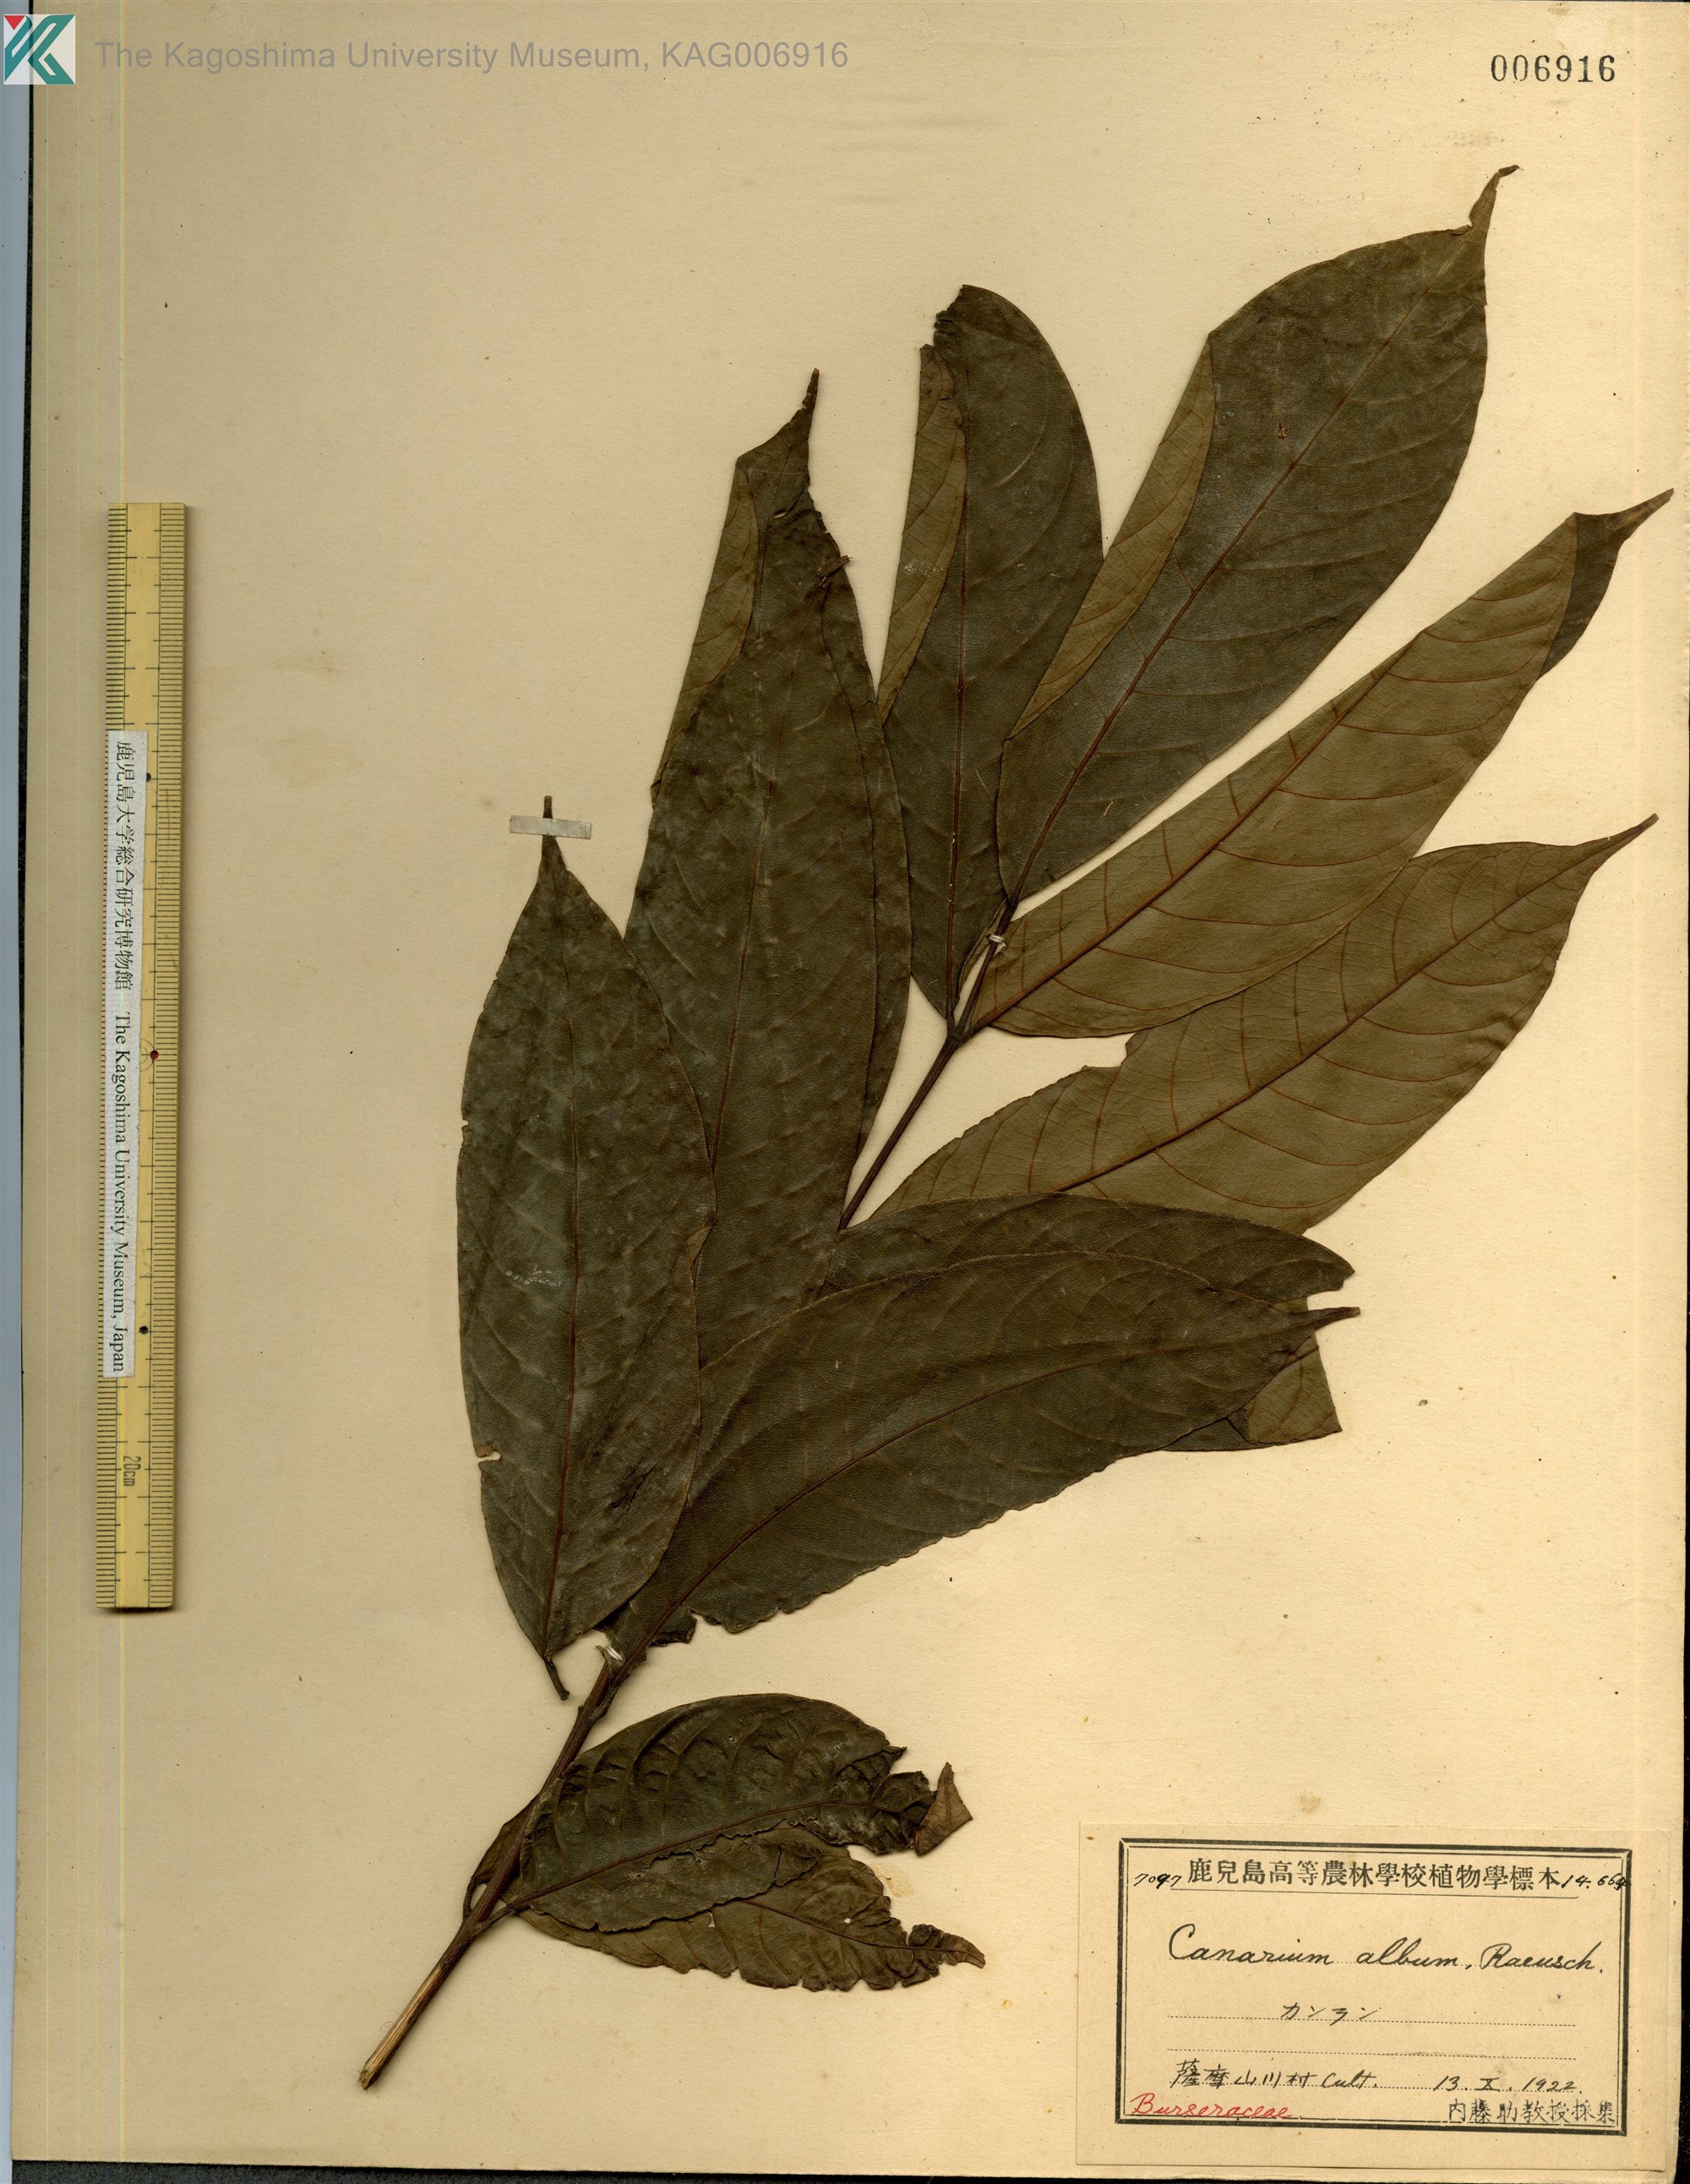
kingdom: Plantae
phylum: Tracheophyta
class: Magnoliopsida
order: Sapindales
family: Burseraceae
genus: Canarium
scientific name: Canarium album
